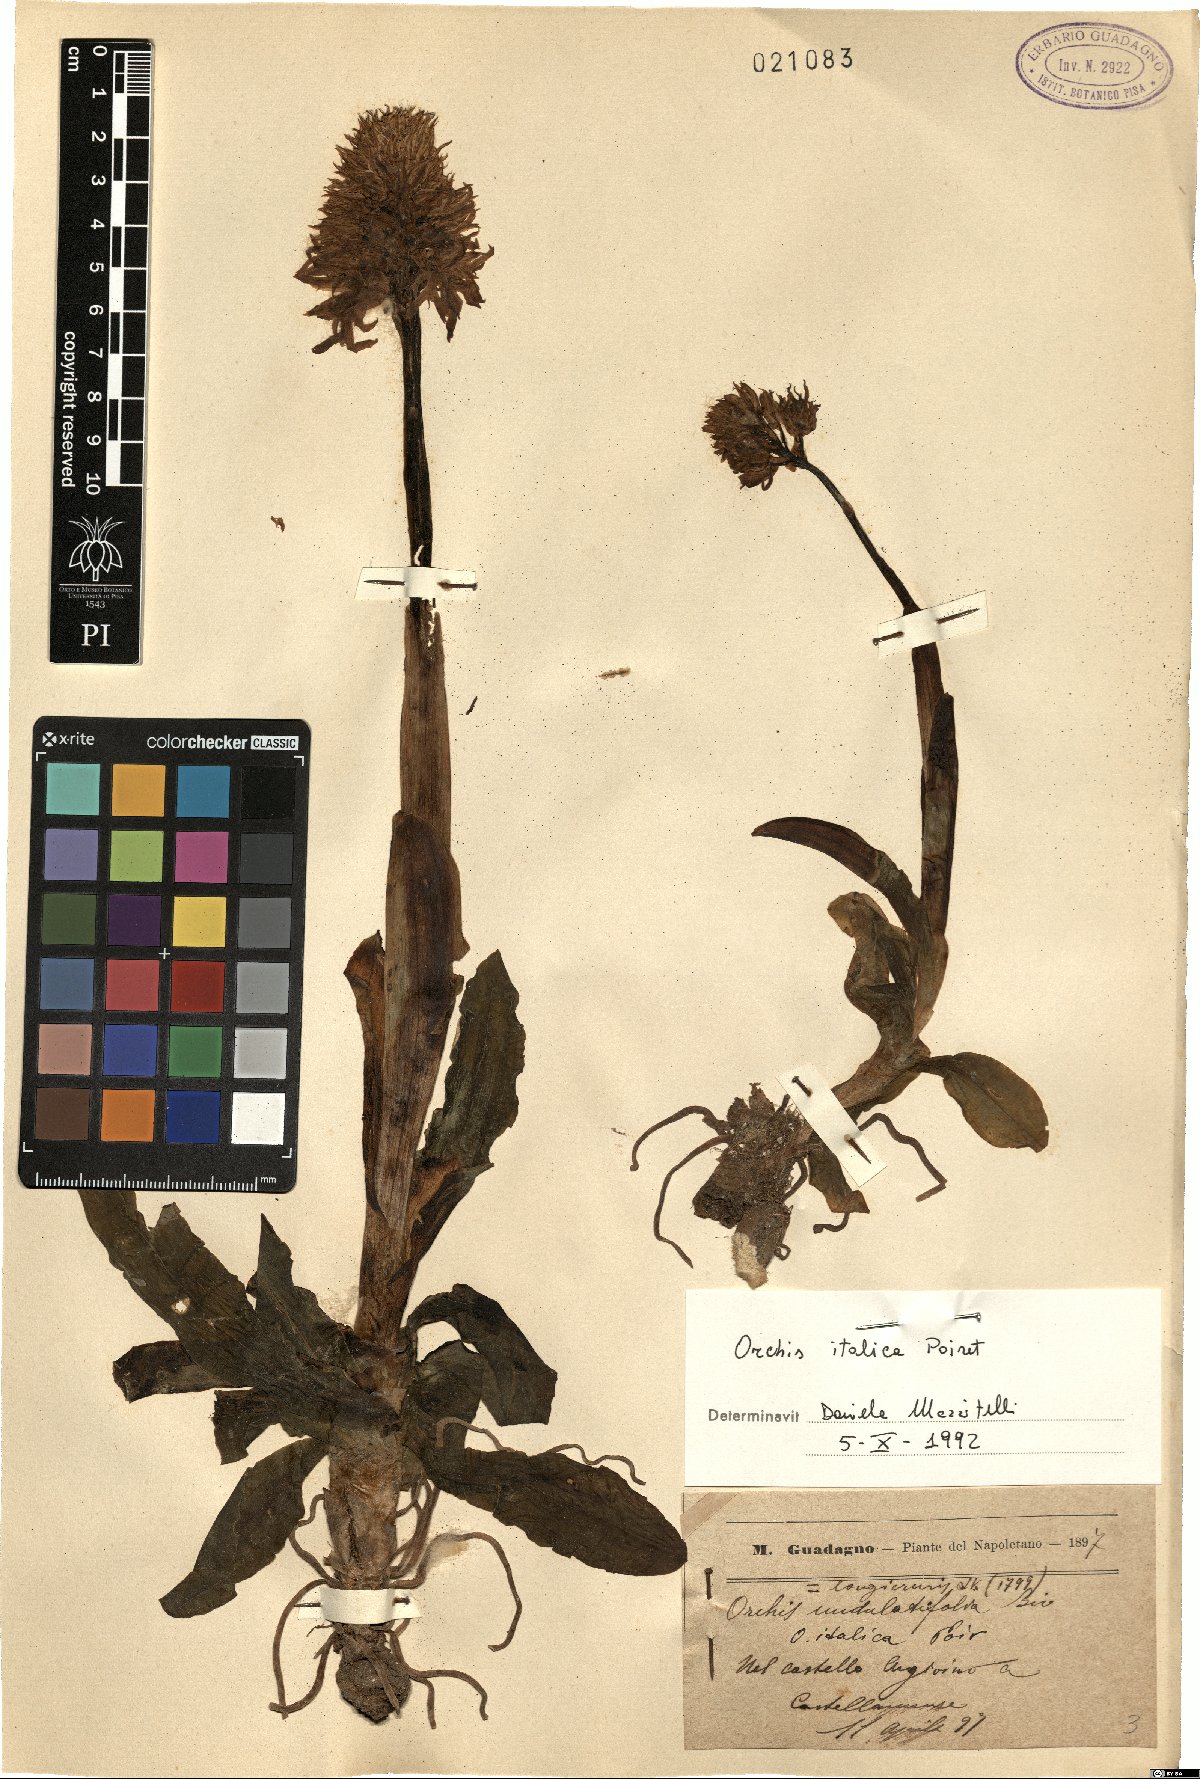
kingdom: Plantae
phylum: Tracheophyta
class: Liliopsida
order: Asparagales
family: Orchidaceae
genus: Orchis
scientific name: Orchis italica
